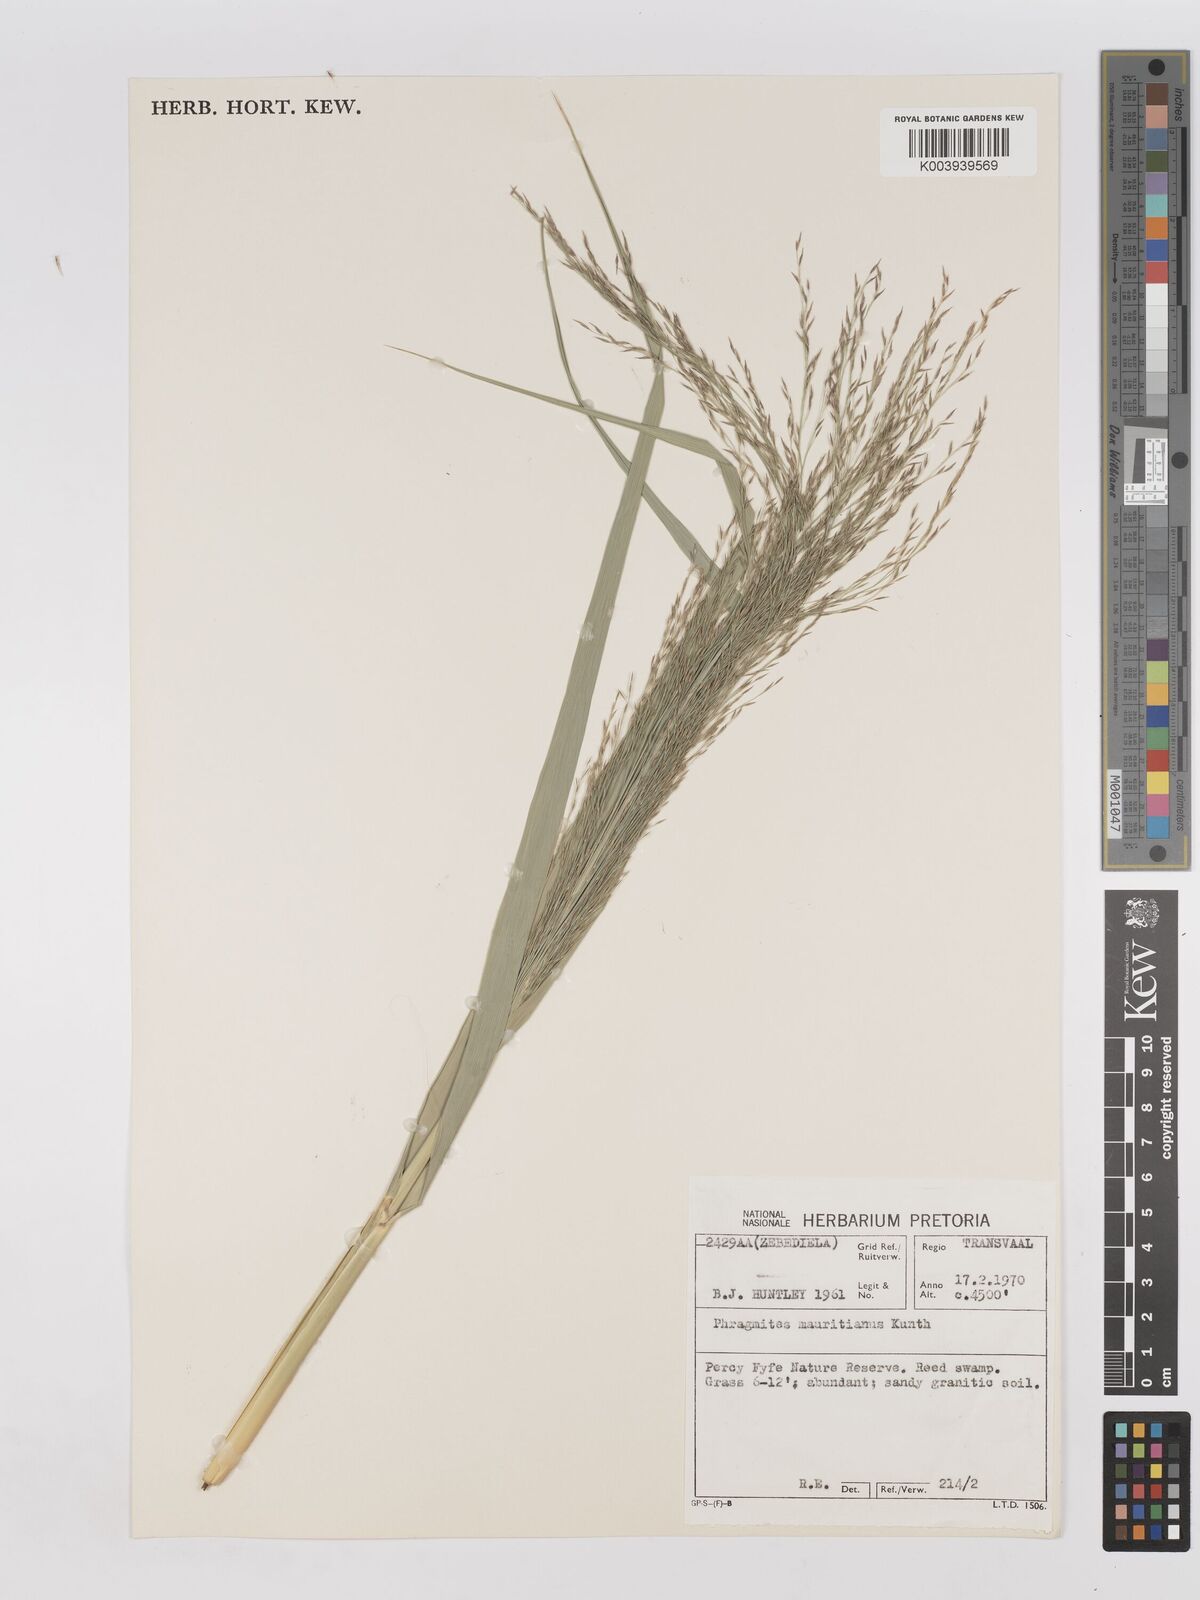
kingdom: Plantae
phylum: Tracheophyta
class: Liliopsida
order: Poales
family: Poaceae
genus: Phragmites
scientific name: Phragmites mauritianus
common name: Reed grass
